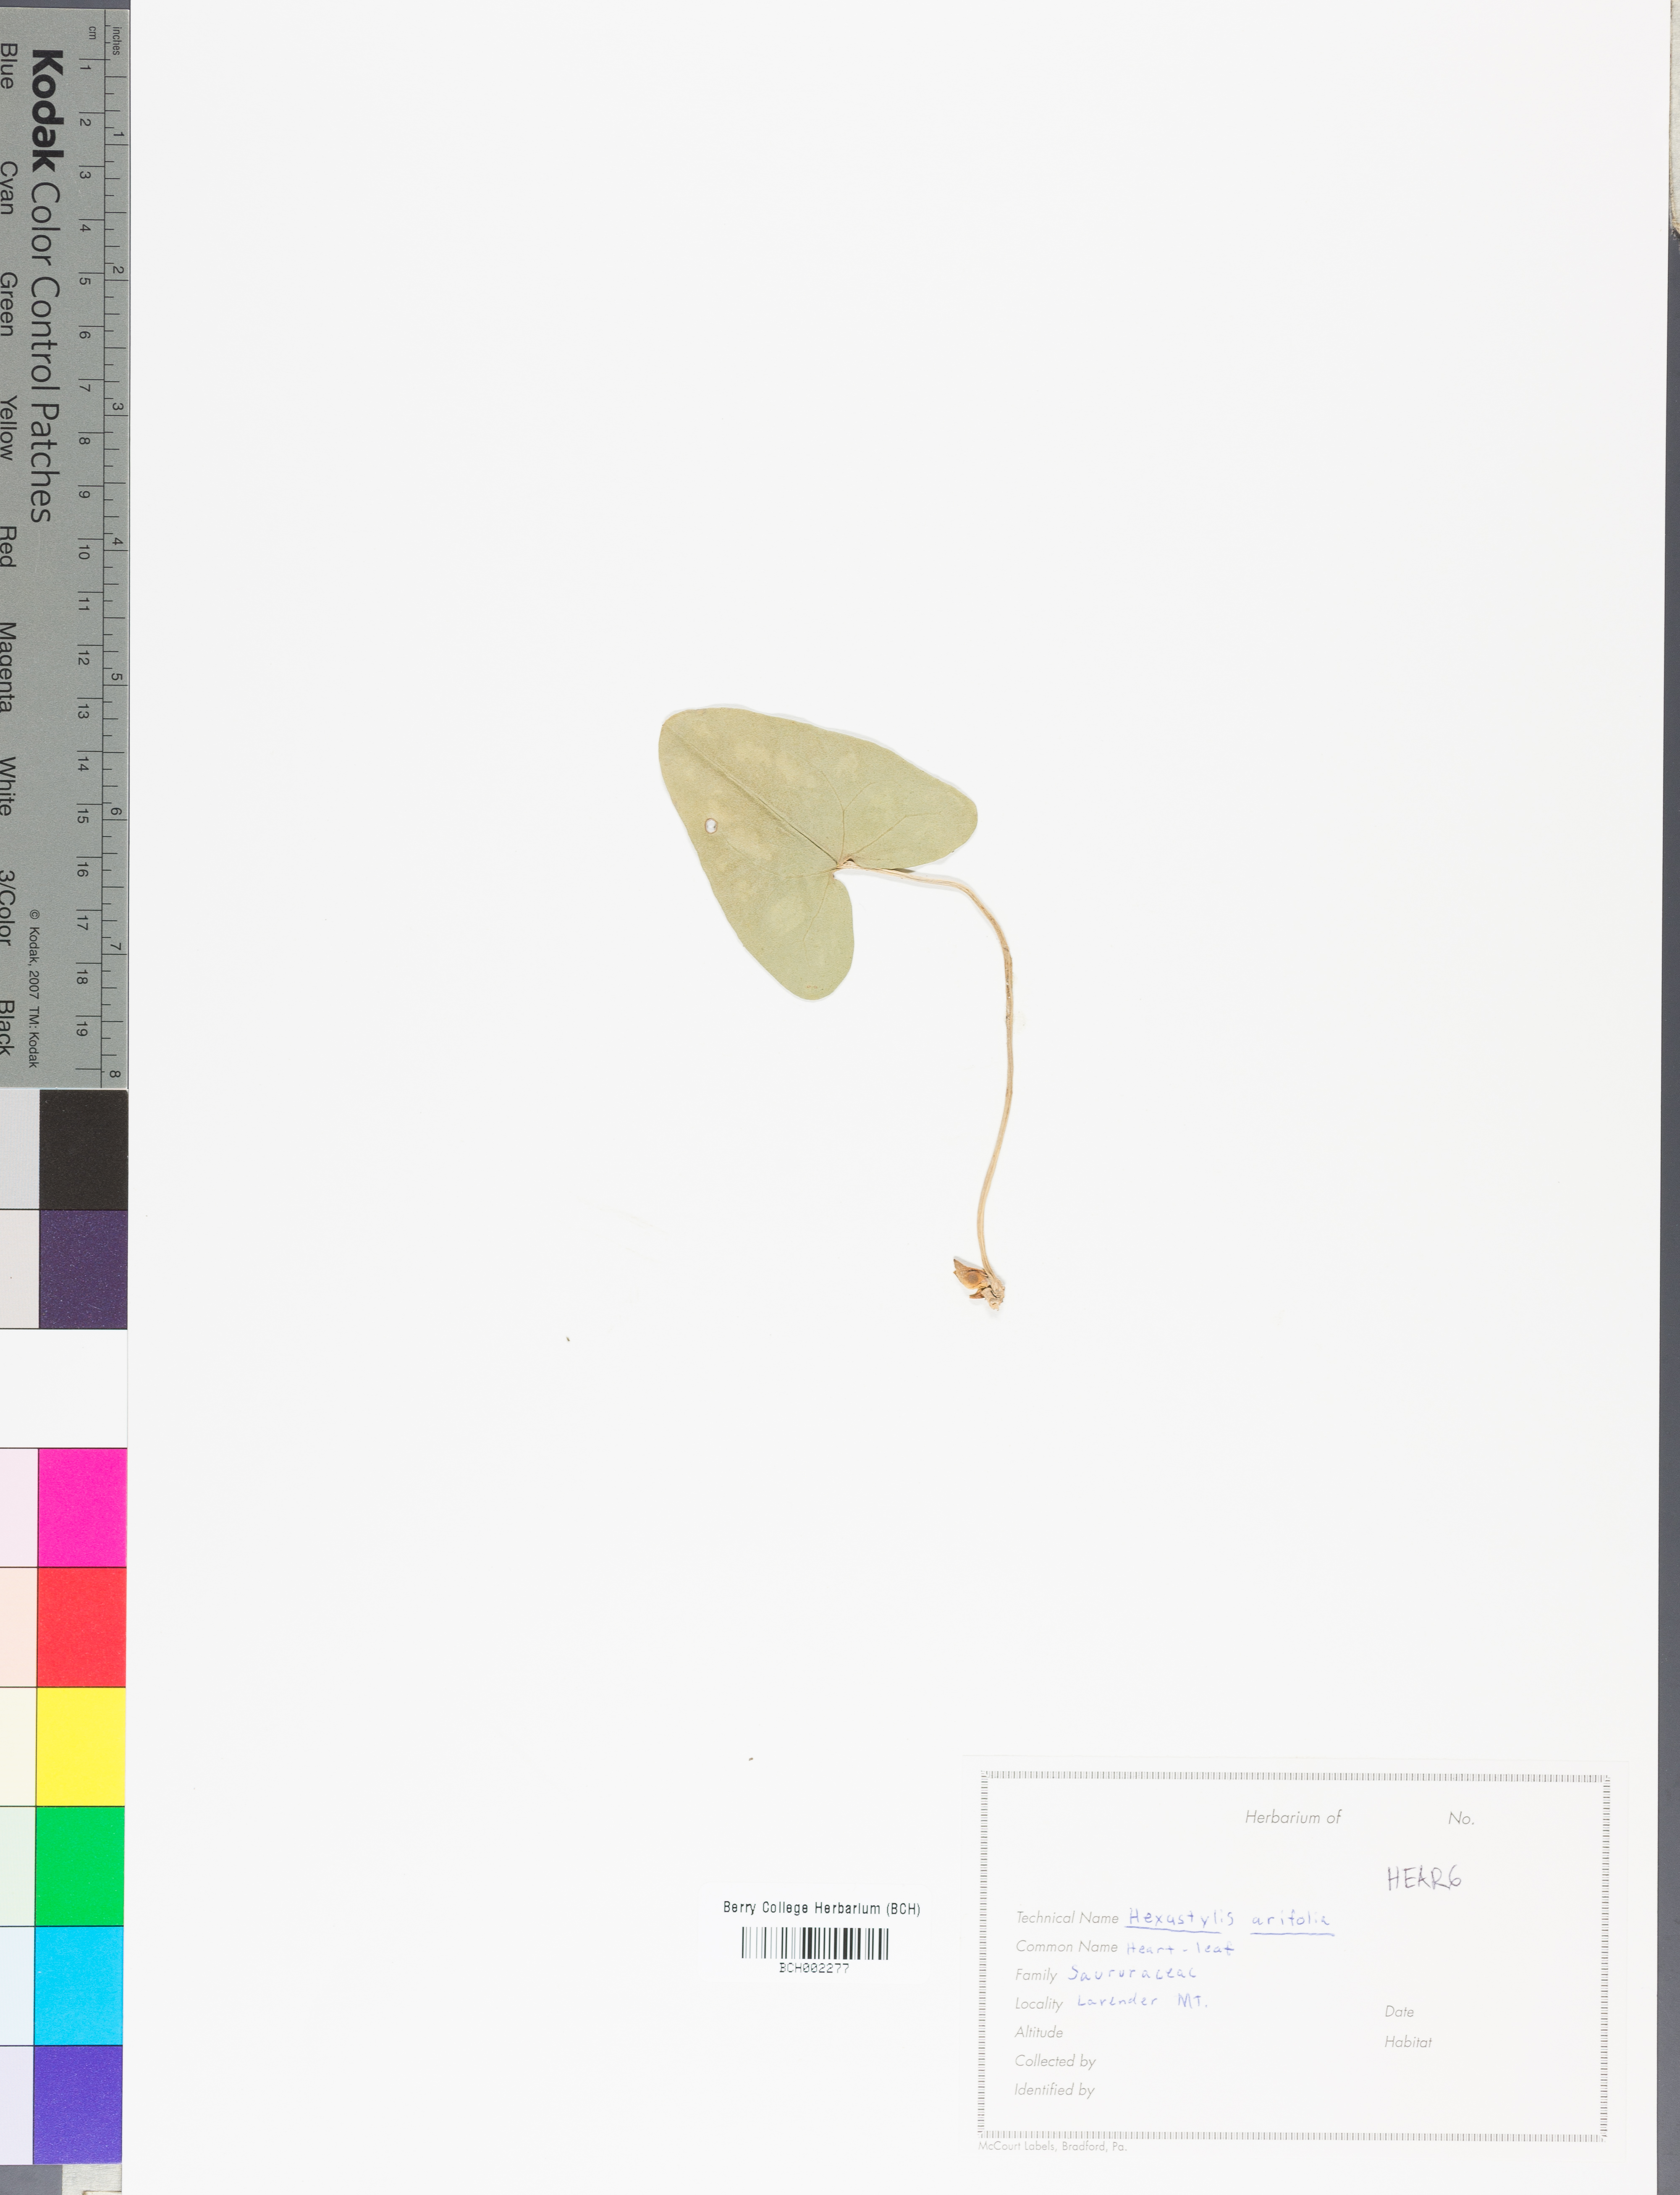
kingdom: Plantae
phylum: Tracheophyta
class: Magnoliopsida
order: Piperales
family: Aristolochiaceae
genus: Hexastylis
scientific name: Hexastylis arifolia
